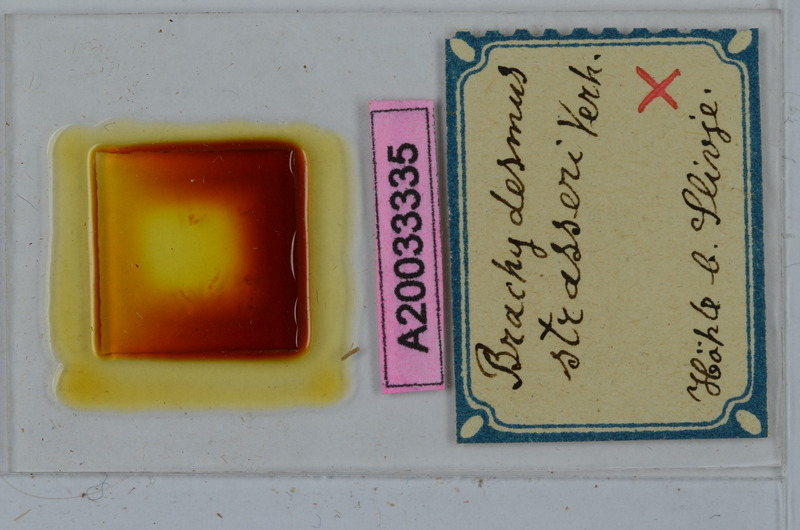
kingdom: Animalia
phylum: Arthropoda
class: Diplopoda
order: Polydesmida
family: Polydesmidae
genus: Schizobrachydesmus
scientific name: Schizobrachydesmus strasseri
